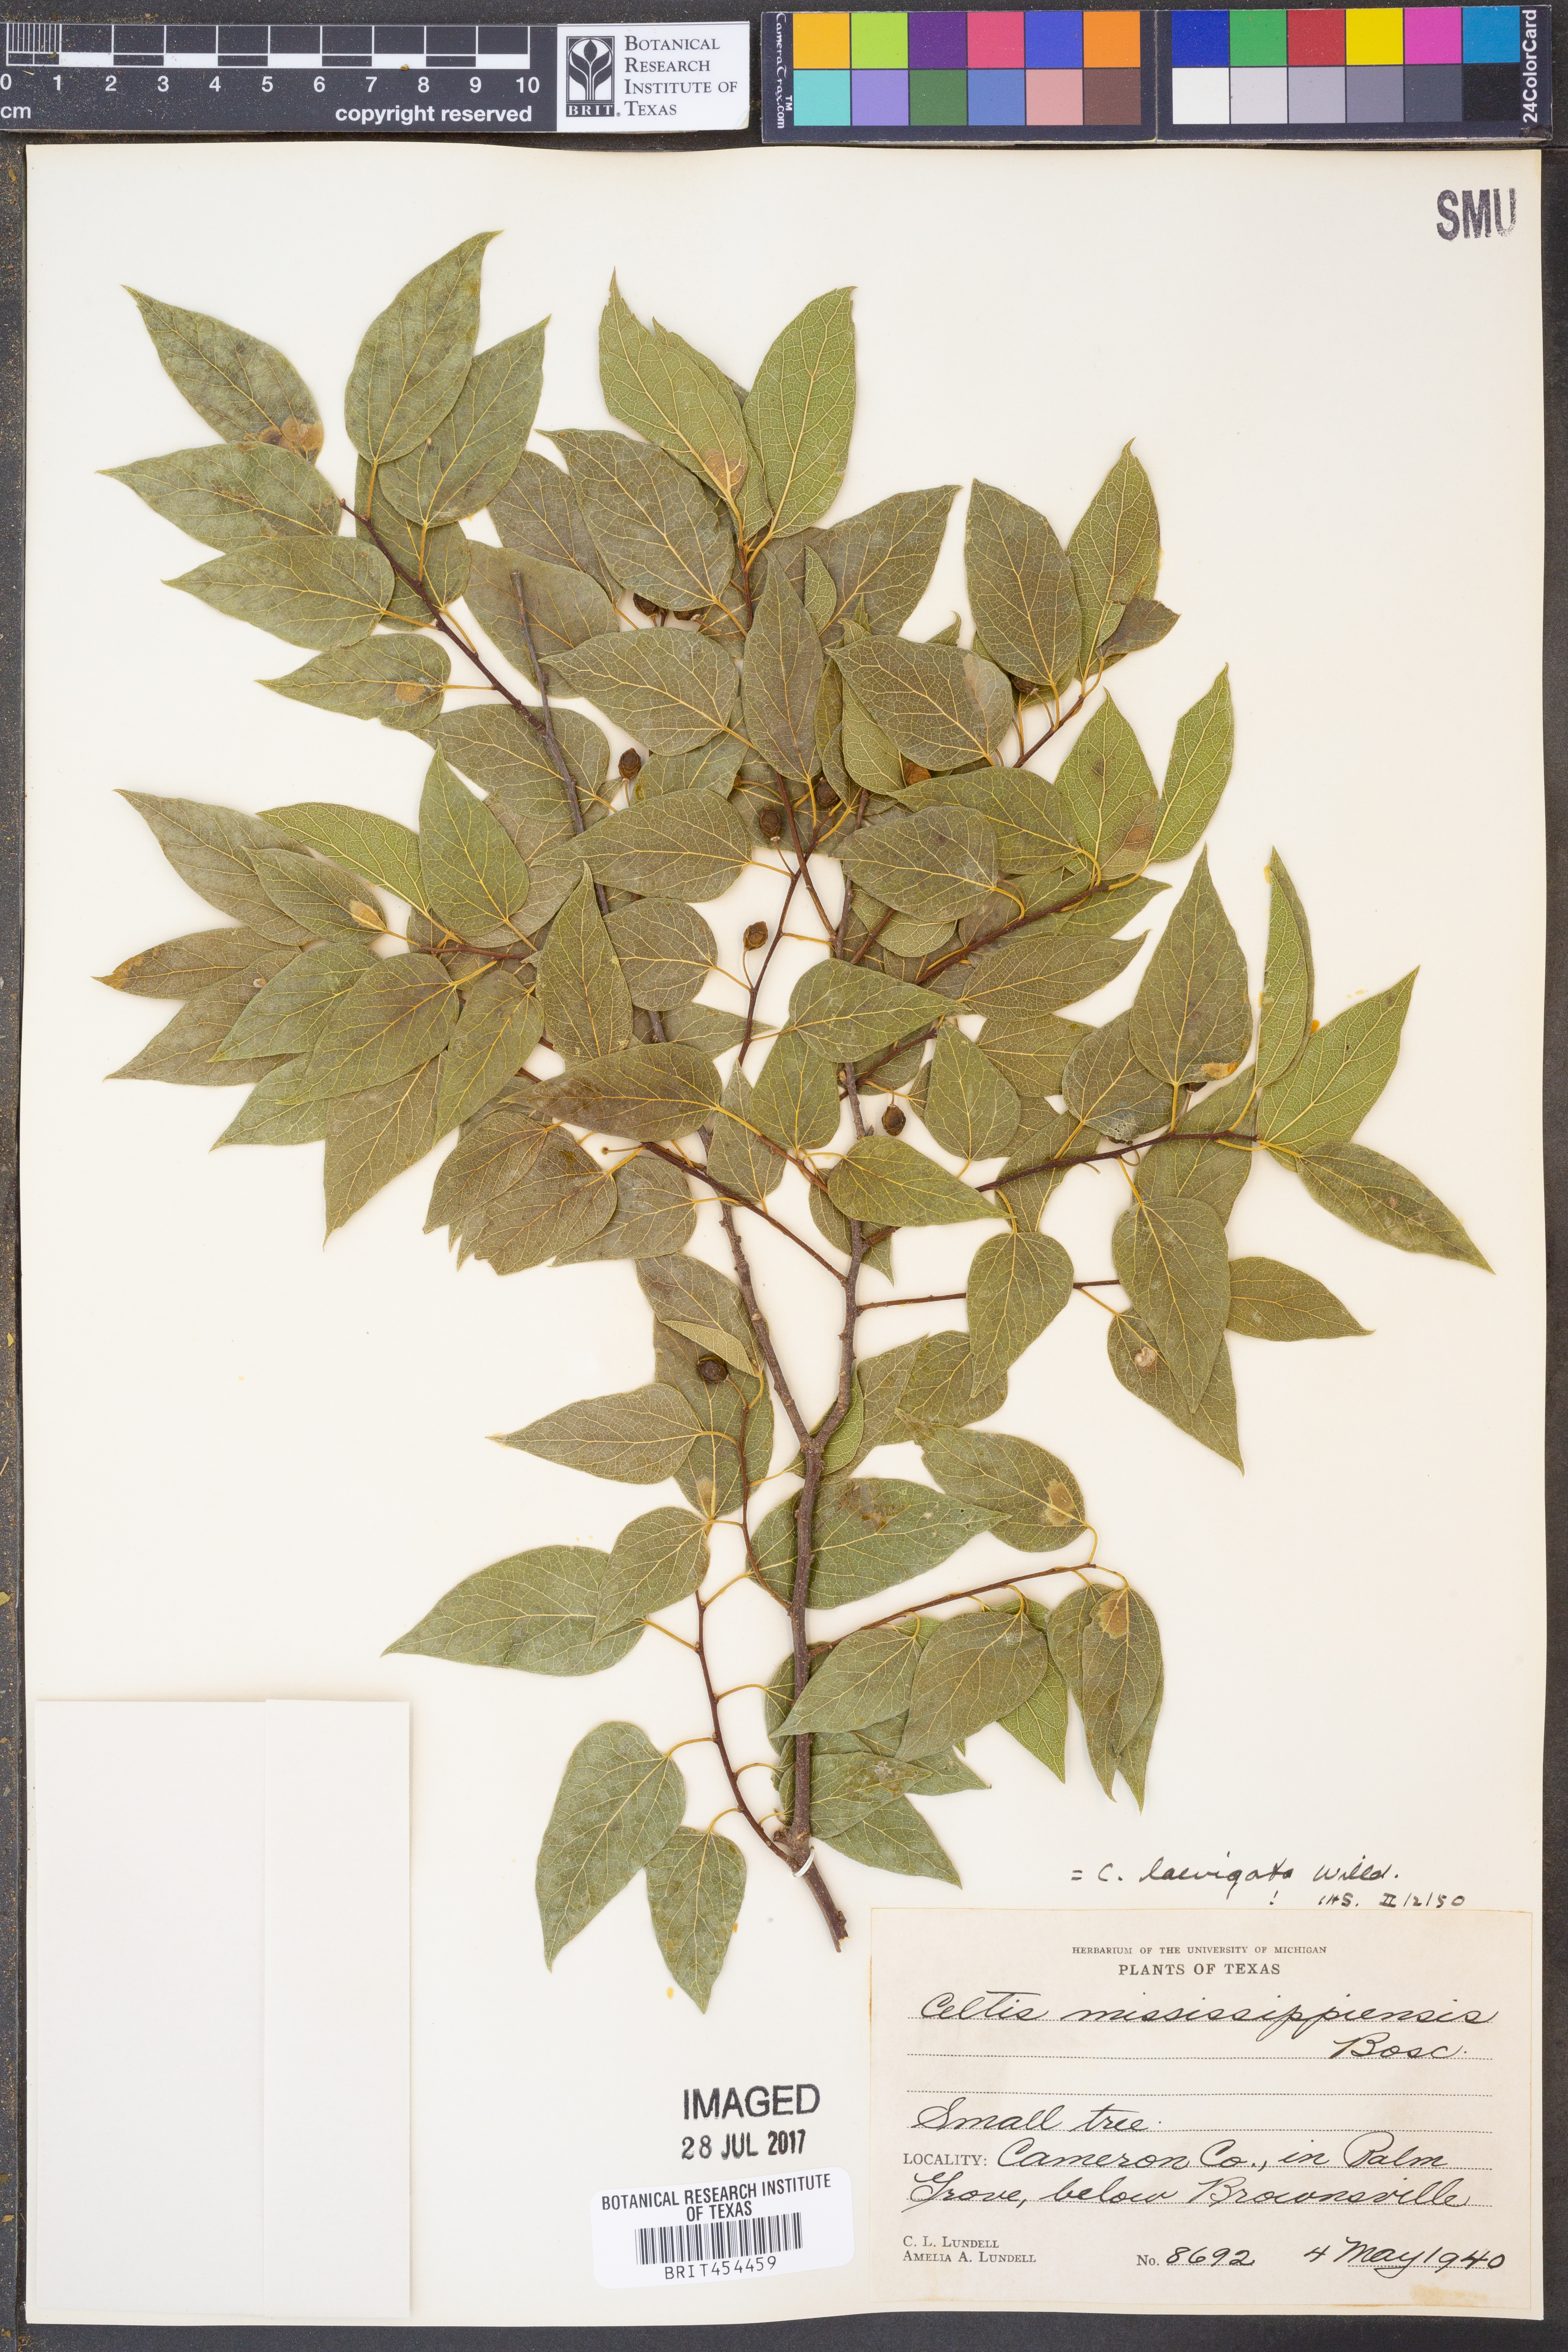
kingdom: Plantae
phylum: Tracheophyta
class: Magnoliopsida
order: Rosales
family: Cannabaceae
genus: Celtis
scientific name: Celtis laevigata
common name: Sugarberry
